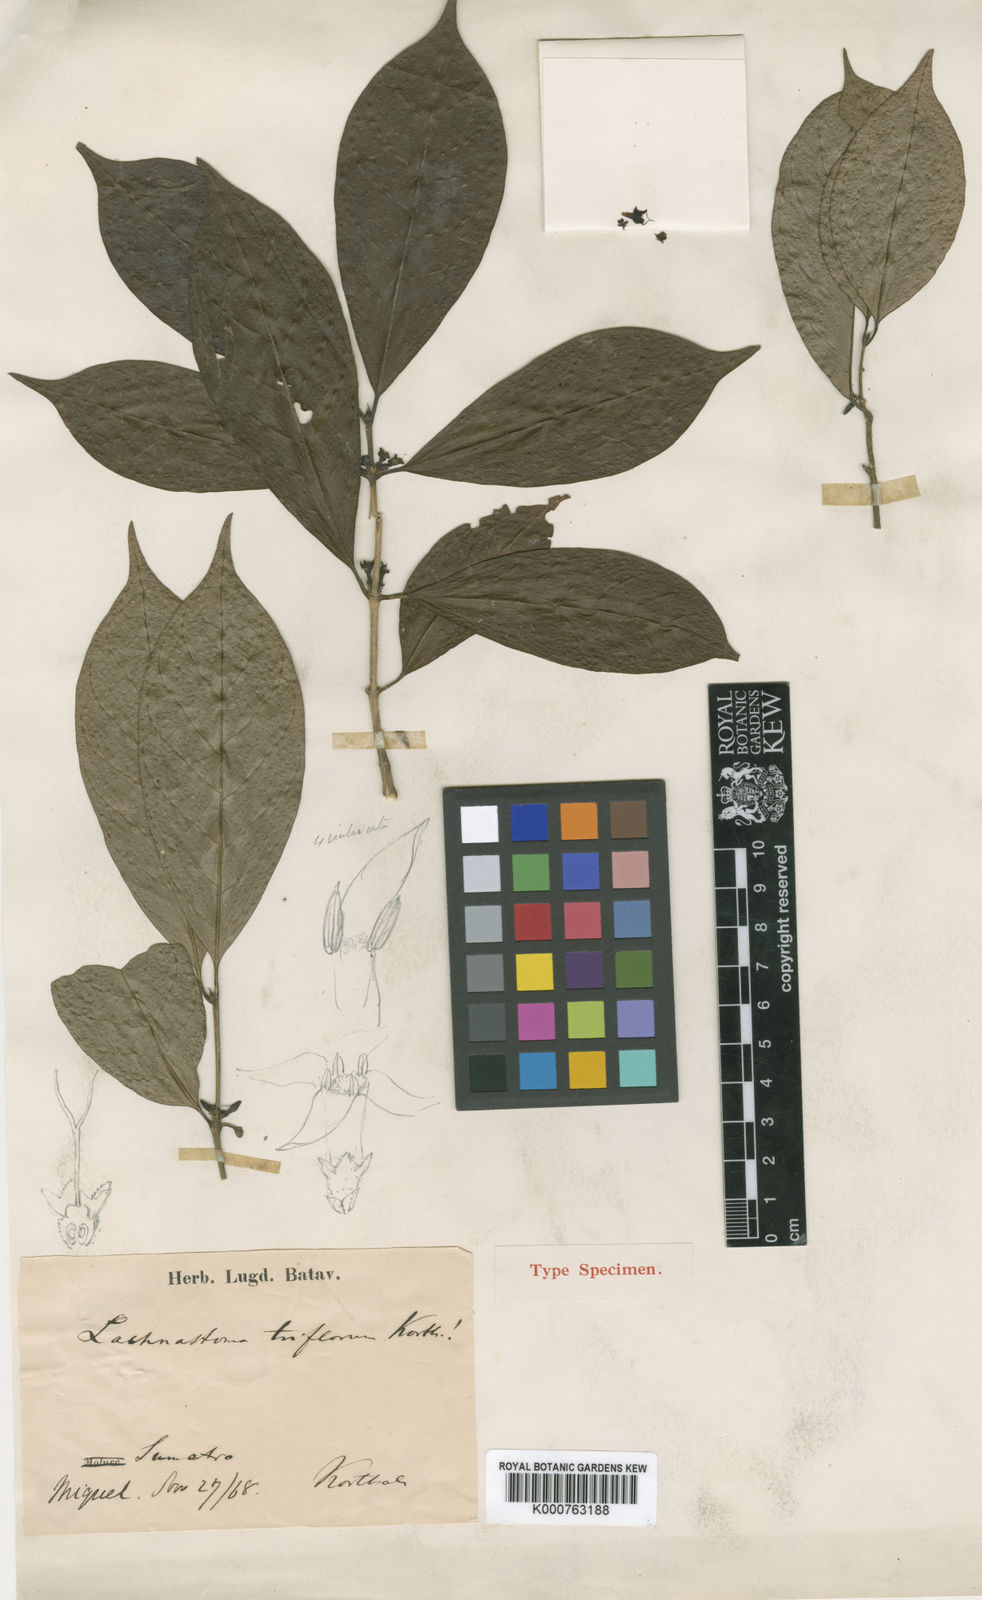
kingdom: Plantae
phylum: Tracheophyta
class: Magnoliopsida
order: Gentianales
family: Rubiaceae
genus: Nostolachma
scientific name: Nostolachma
